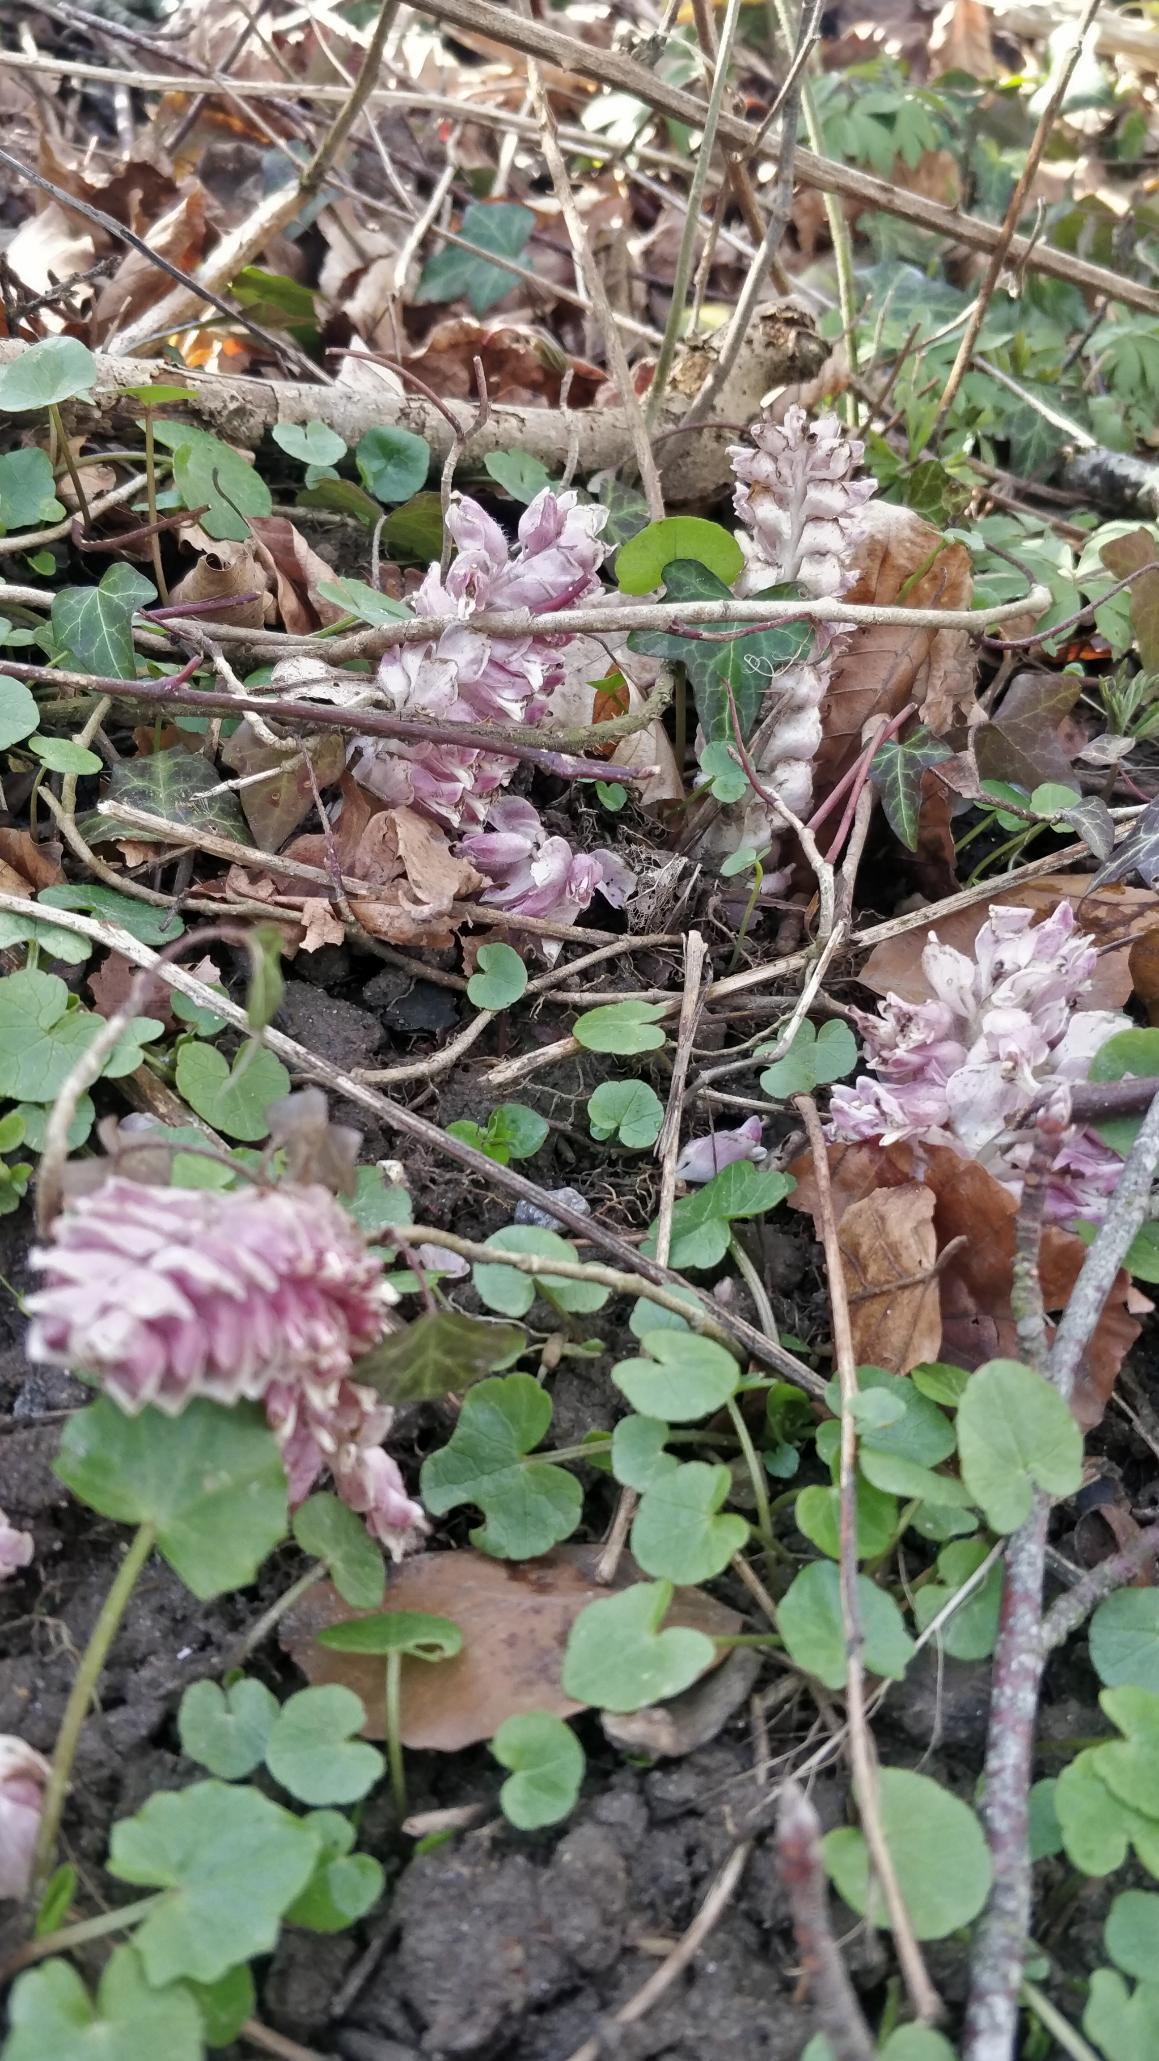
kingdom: Plantae
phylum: Tracheophyta
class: Magnoliopsida
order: Lamiales
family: Orobanchaceae
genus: Lathraea
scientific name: Lathraea squamaria
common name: Skælrod
